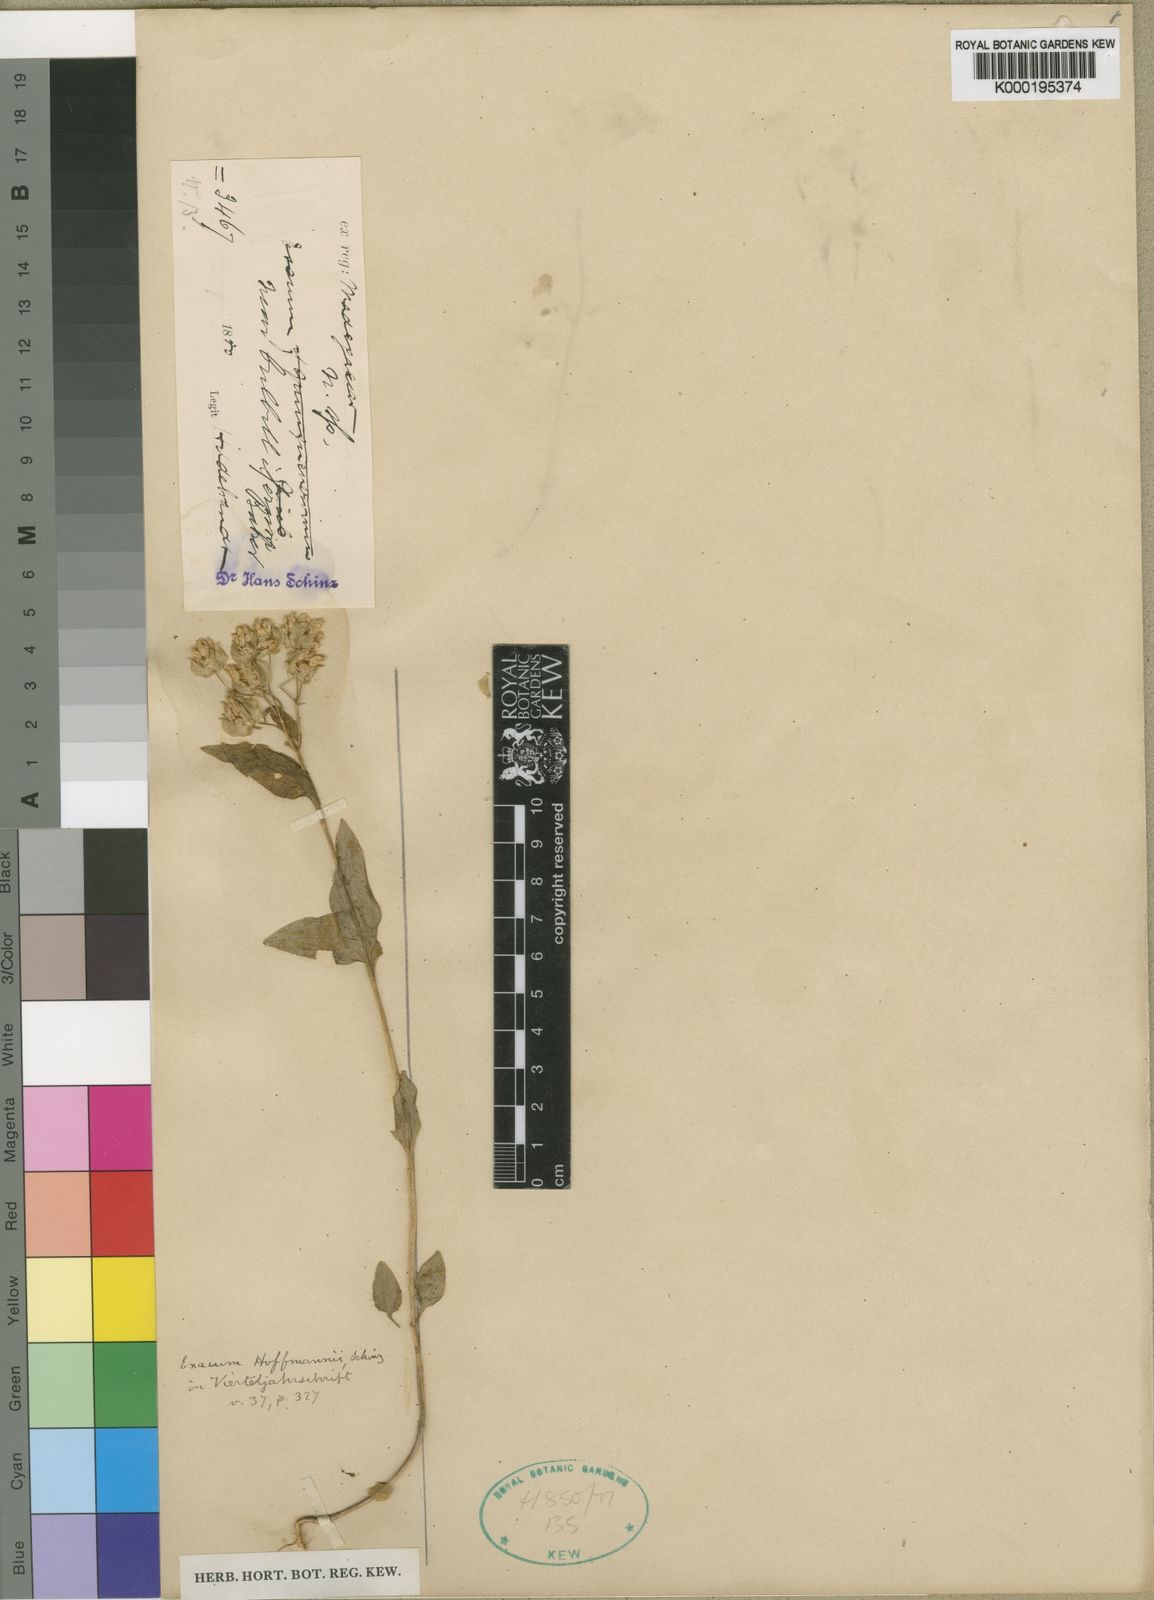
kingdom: Plantae
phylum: Tracheophyta
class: Magnoliopsida
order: Gentianales
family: Gentianaceae
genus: Exacum
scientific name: Exacum hoffmannii
